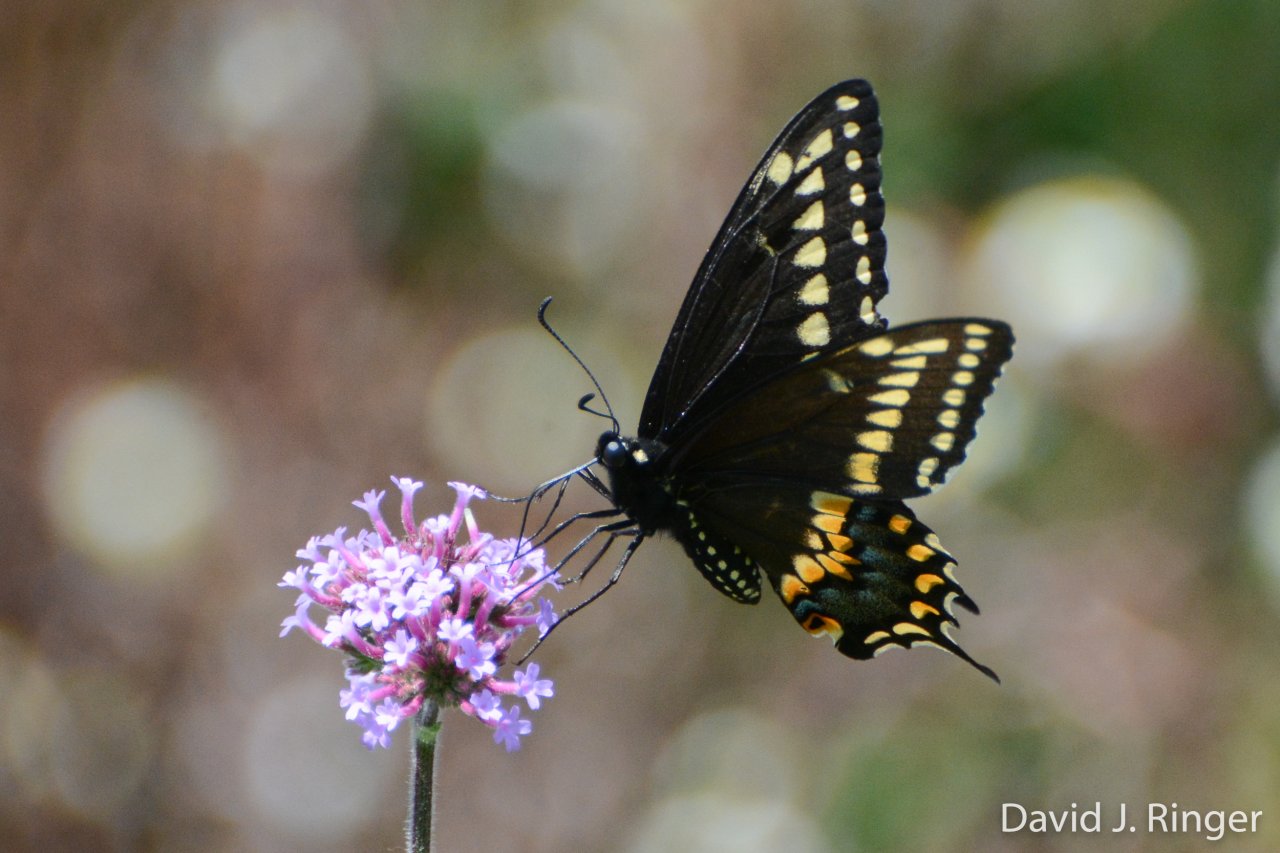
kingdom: Animalia
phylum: Arthropoda
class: Insecta
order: Lepidoptera
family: Papilionidae
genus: Papilio
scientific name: Papilio polyxenes
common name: Black Swallowtail
